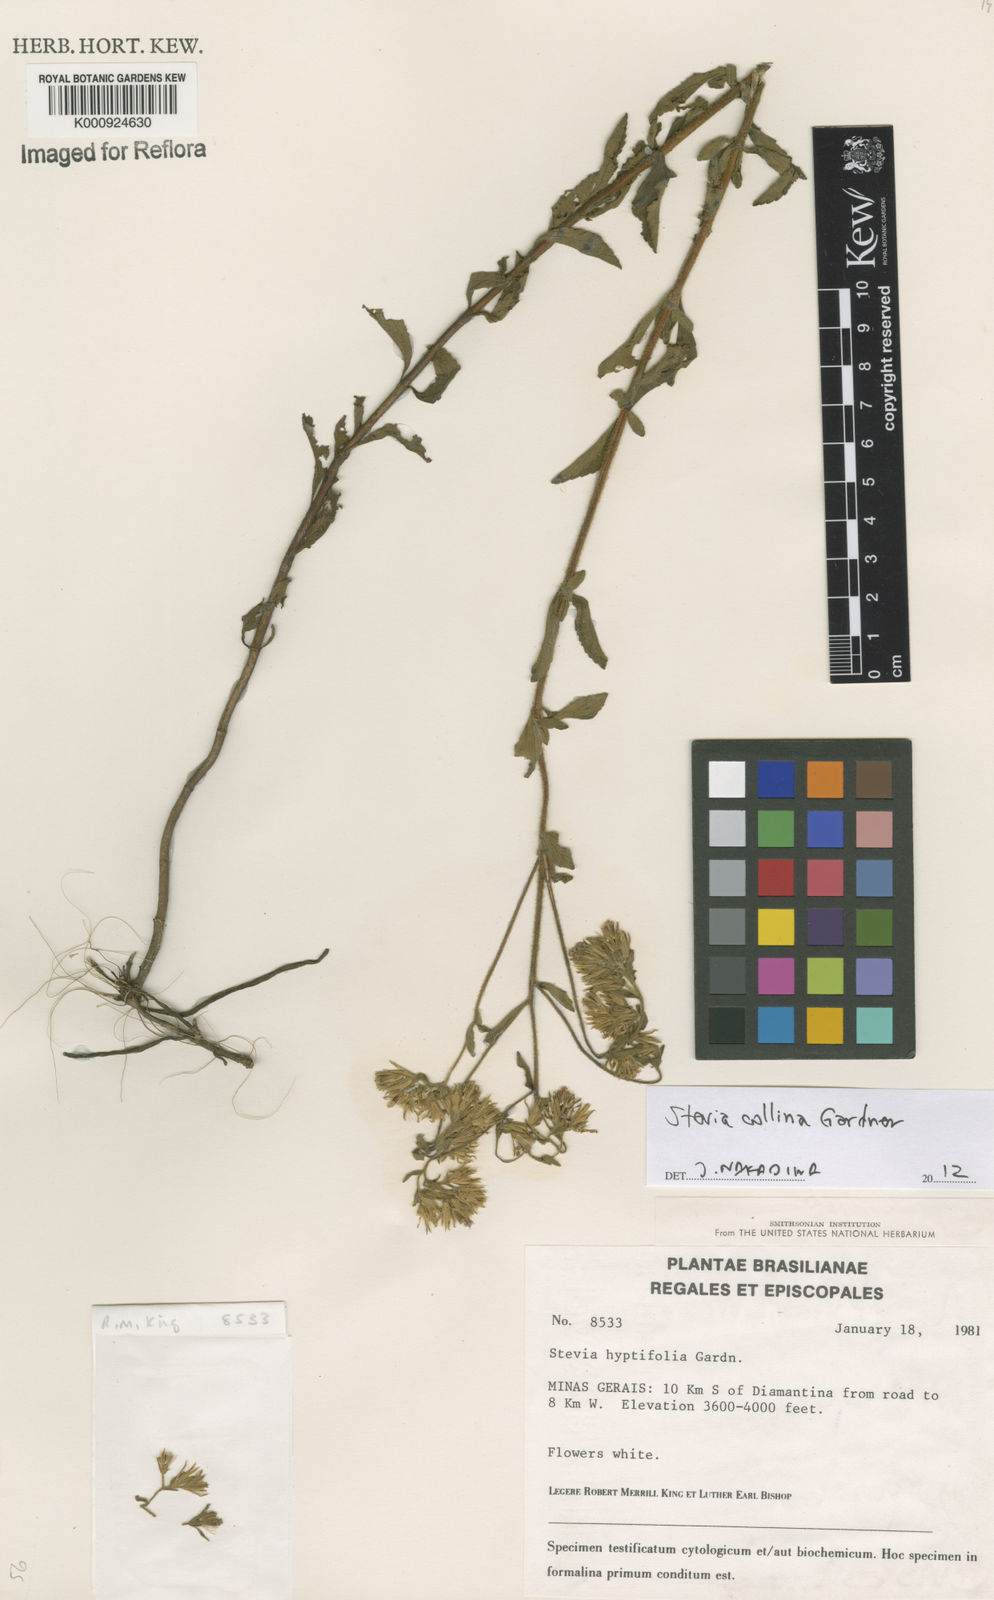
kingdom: Plantae
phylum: Tracheophyta
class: Magnoliopsida
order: Asterales
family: Asteraceae
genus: Stevia
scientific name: Stevia collina
